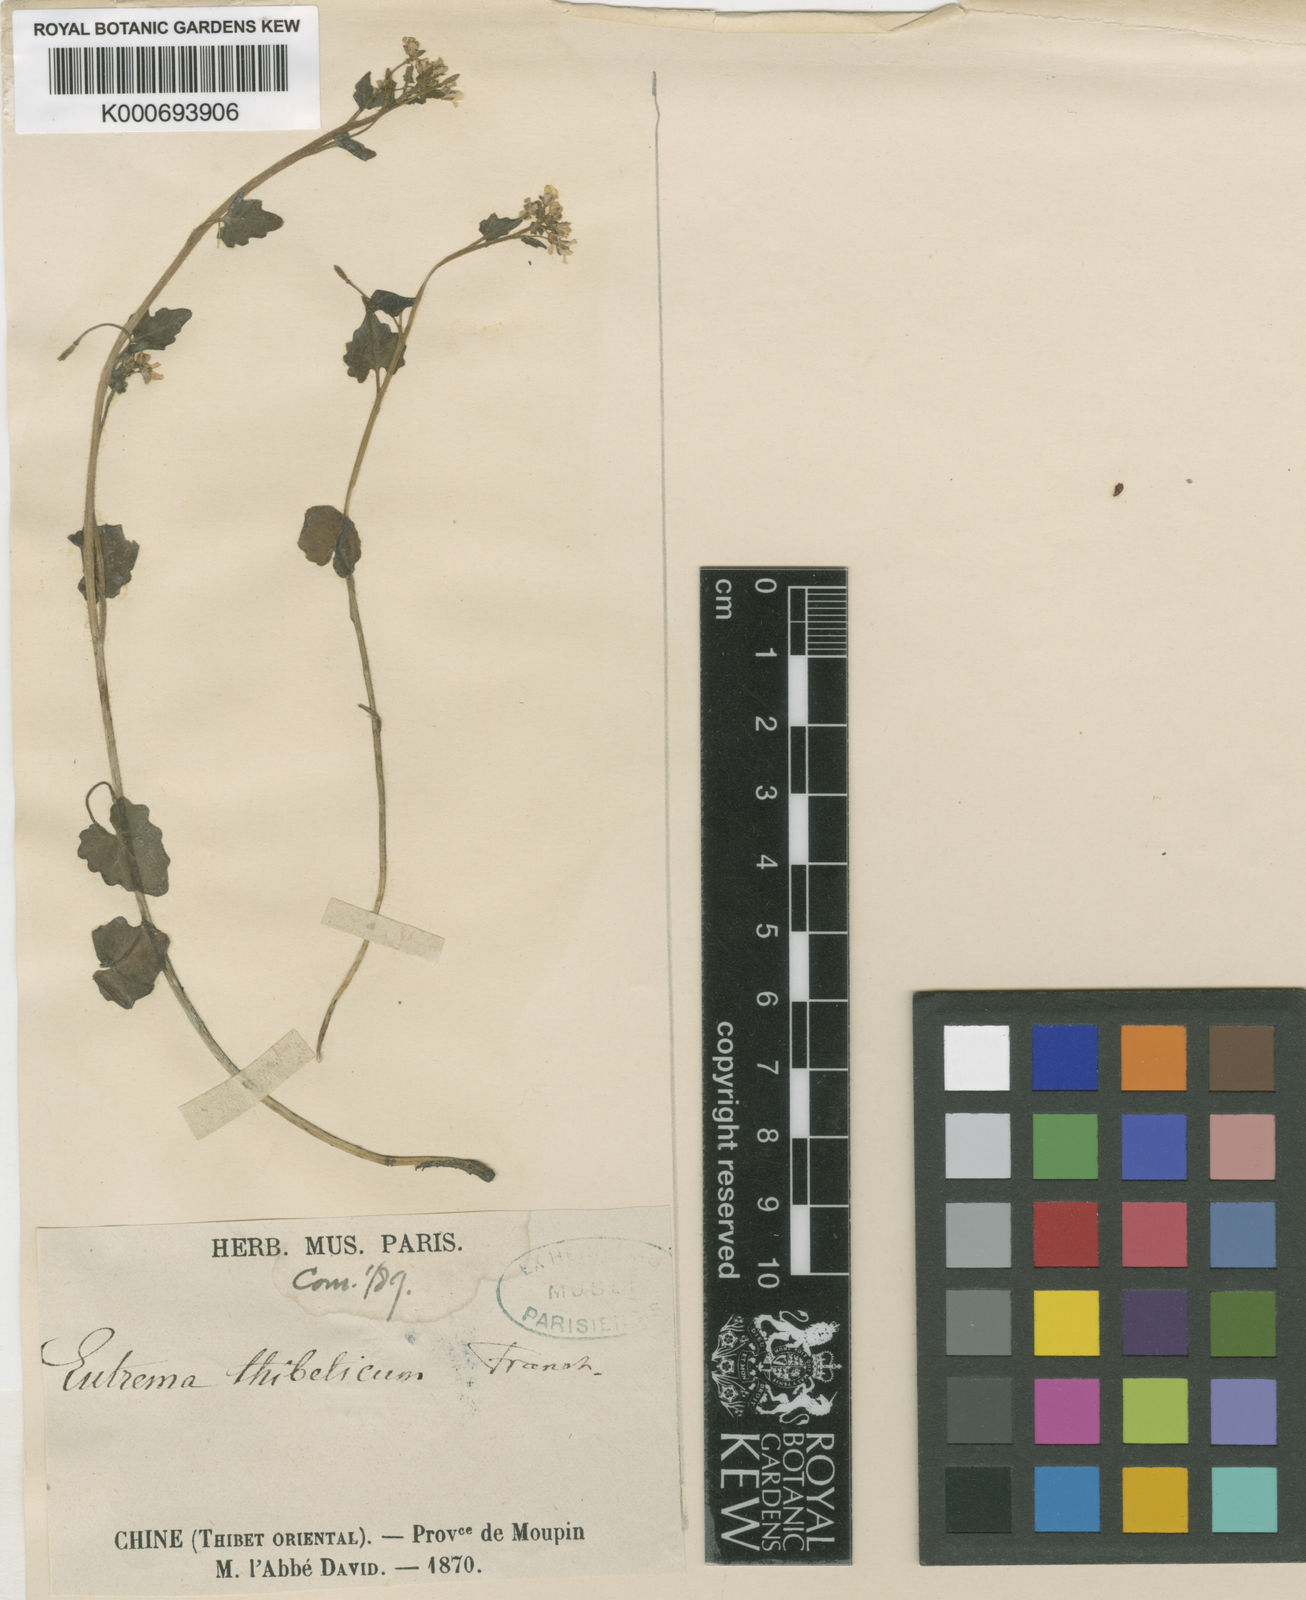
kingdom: Plantae
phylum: Tracheophyta
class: Magnoliopsida
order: Brassicales
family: Brassicaceae
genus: Eutrema
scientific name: Eutrema thibeticum
